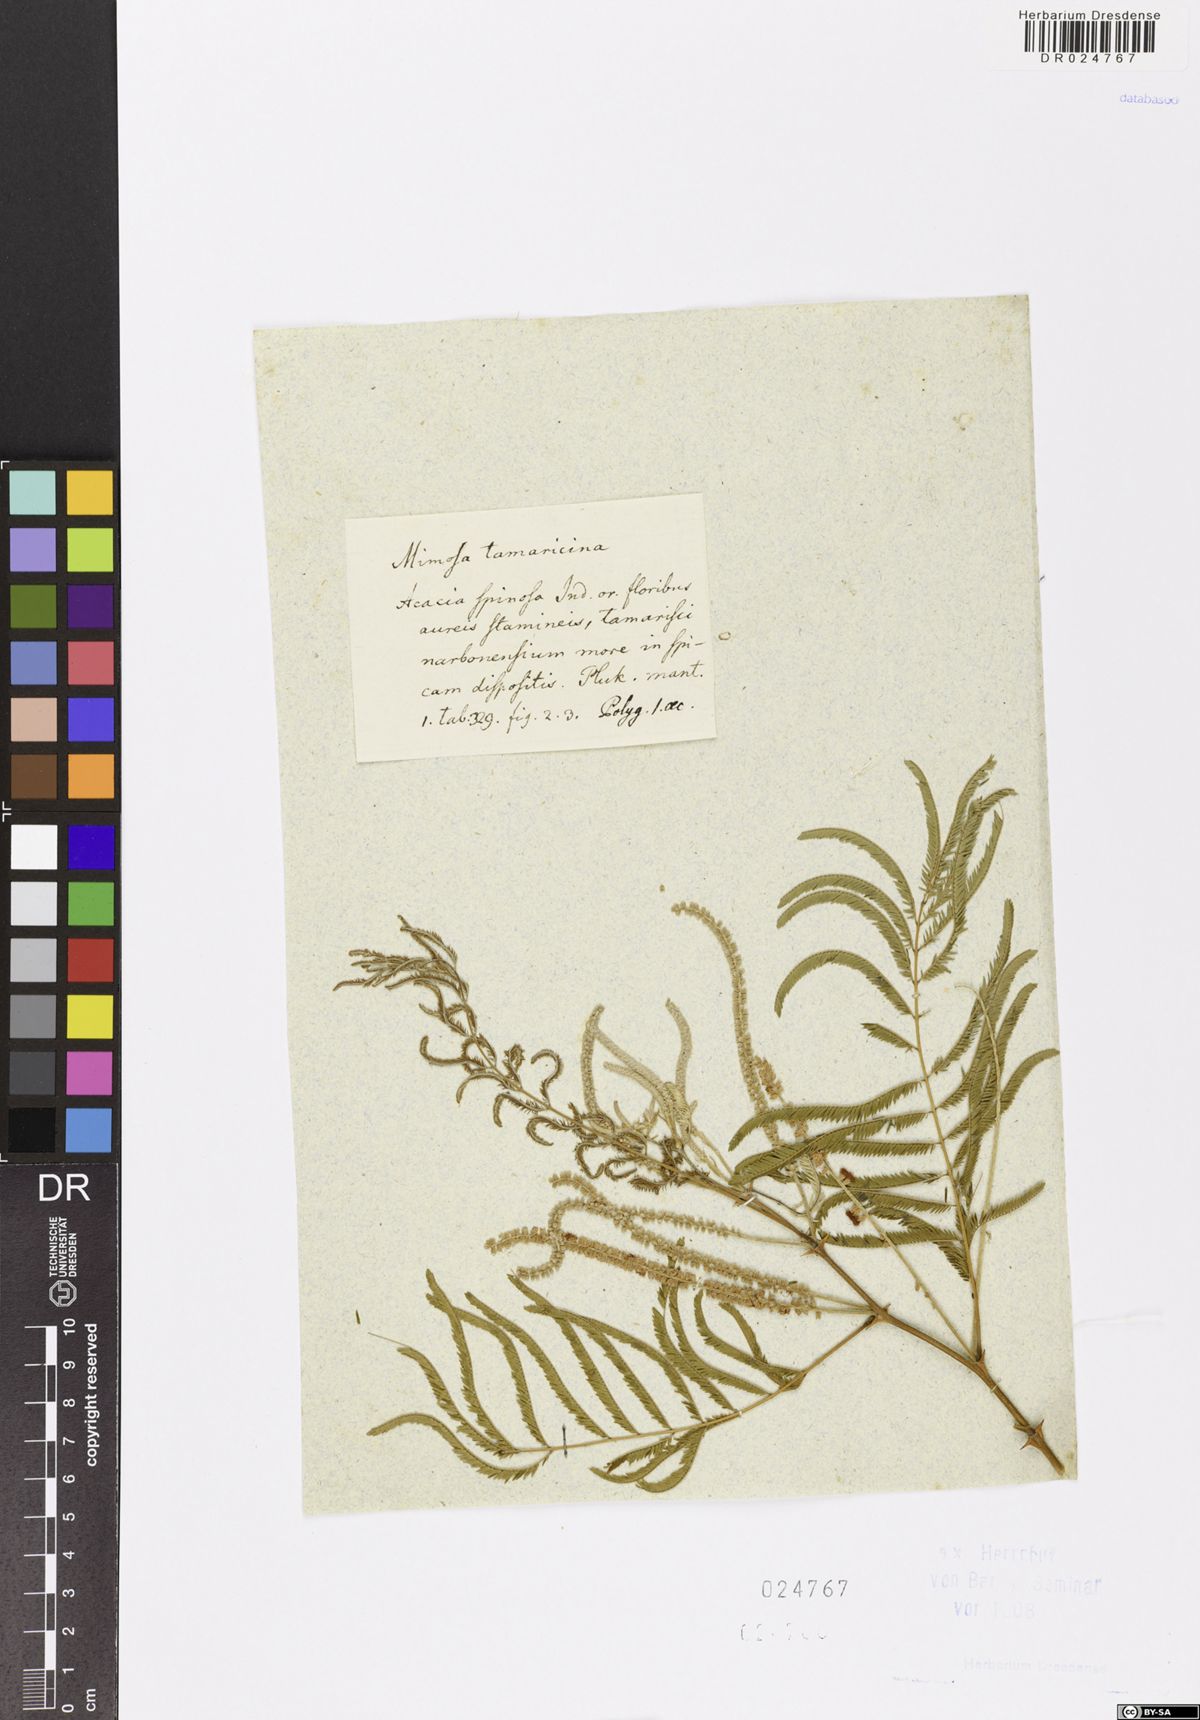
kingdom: Plantae
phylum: Tracheophyta
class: Magnoliopsida
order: Fabales
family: Fabaceae
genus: Senegalia
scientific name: Senegalia polyacantha
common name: Whitethorn
